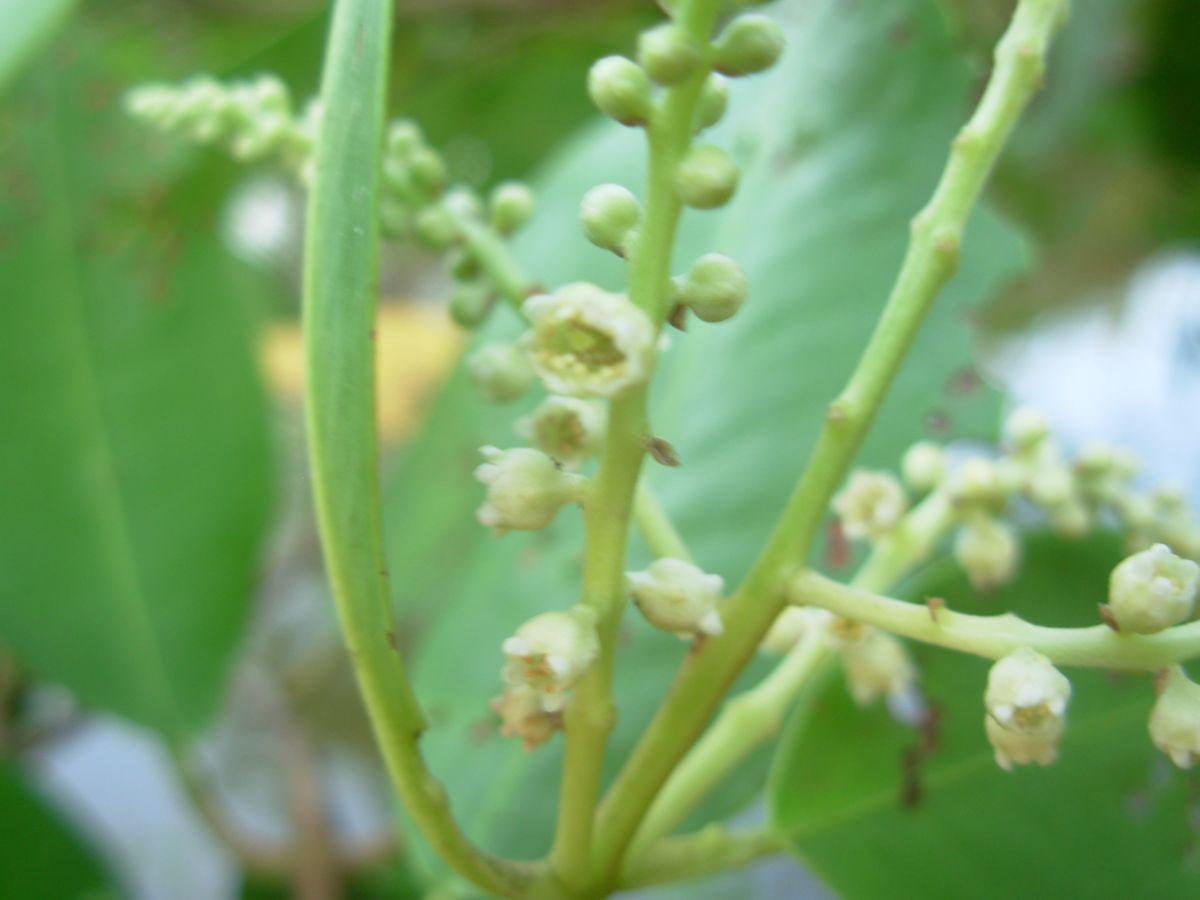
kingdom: Plantae
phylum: Tracheophyta
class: Magnoliopsida
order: Myrtales
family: Combretaceae
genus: Laguncularia
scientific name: Laguncularia racemosa
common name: White mangrove
